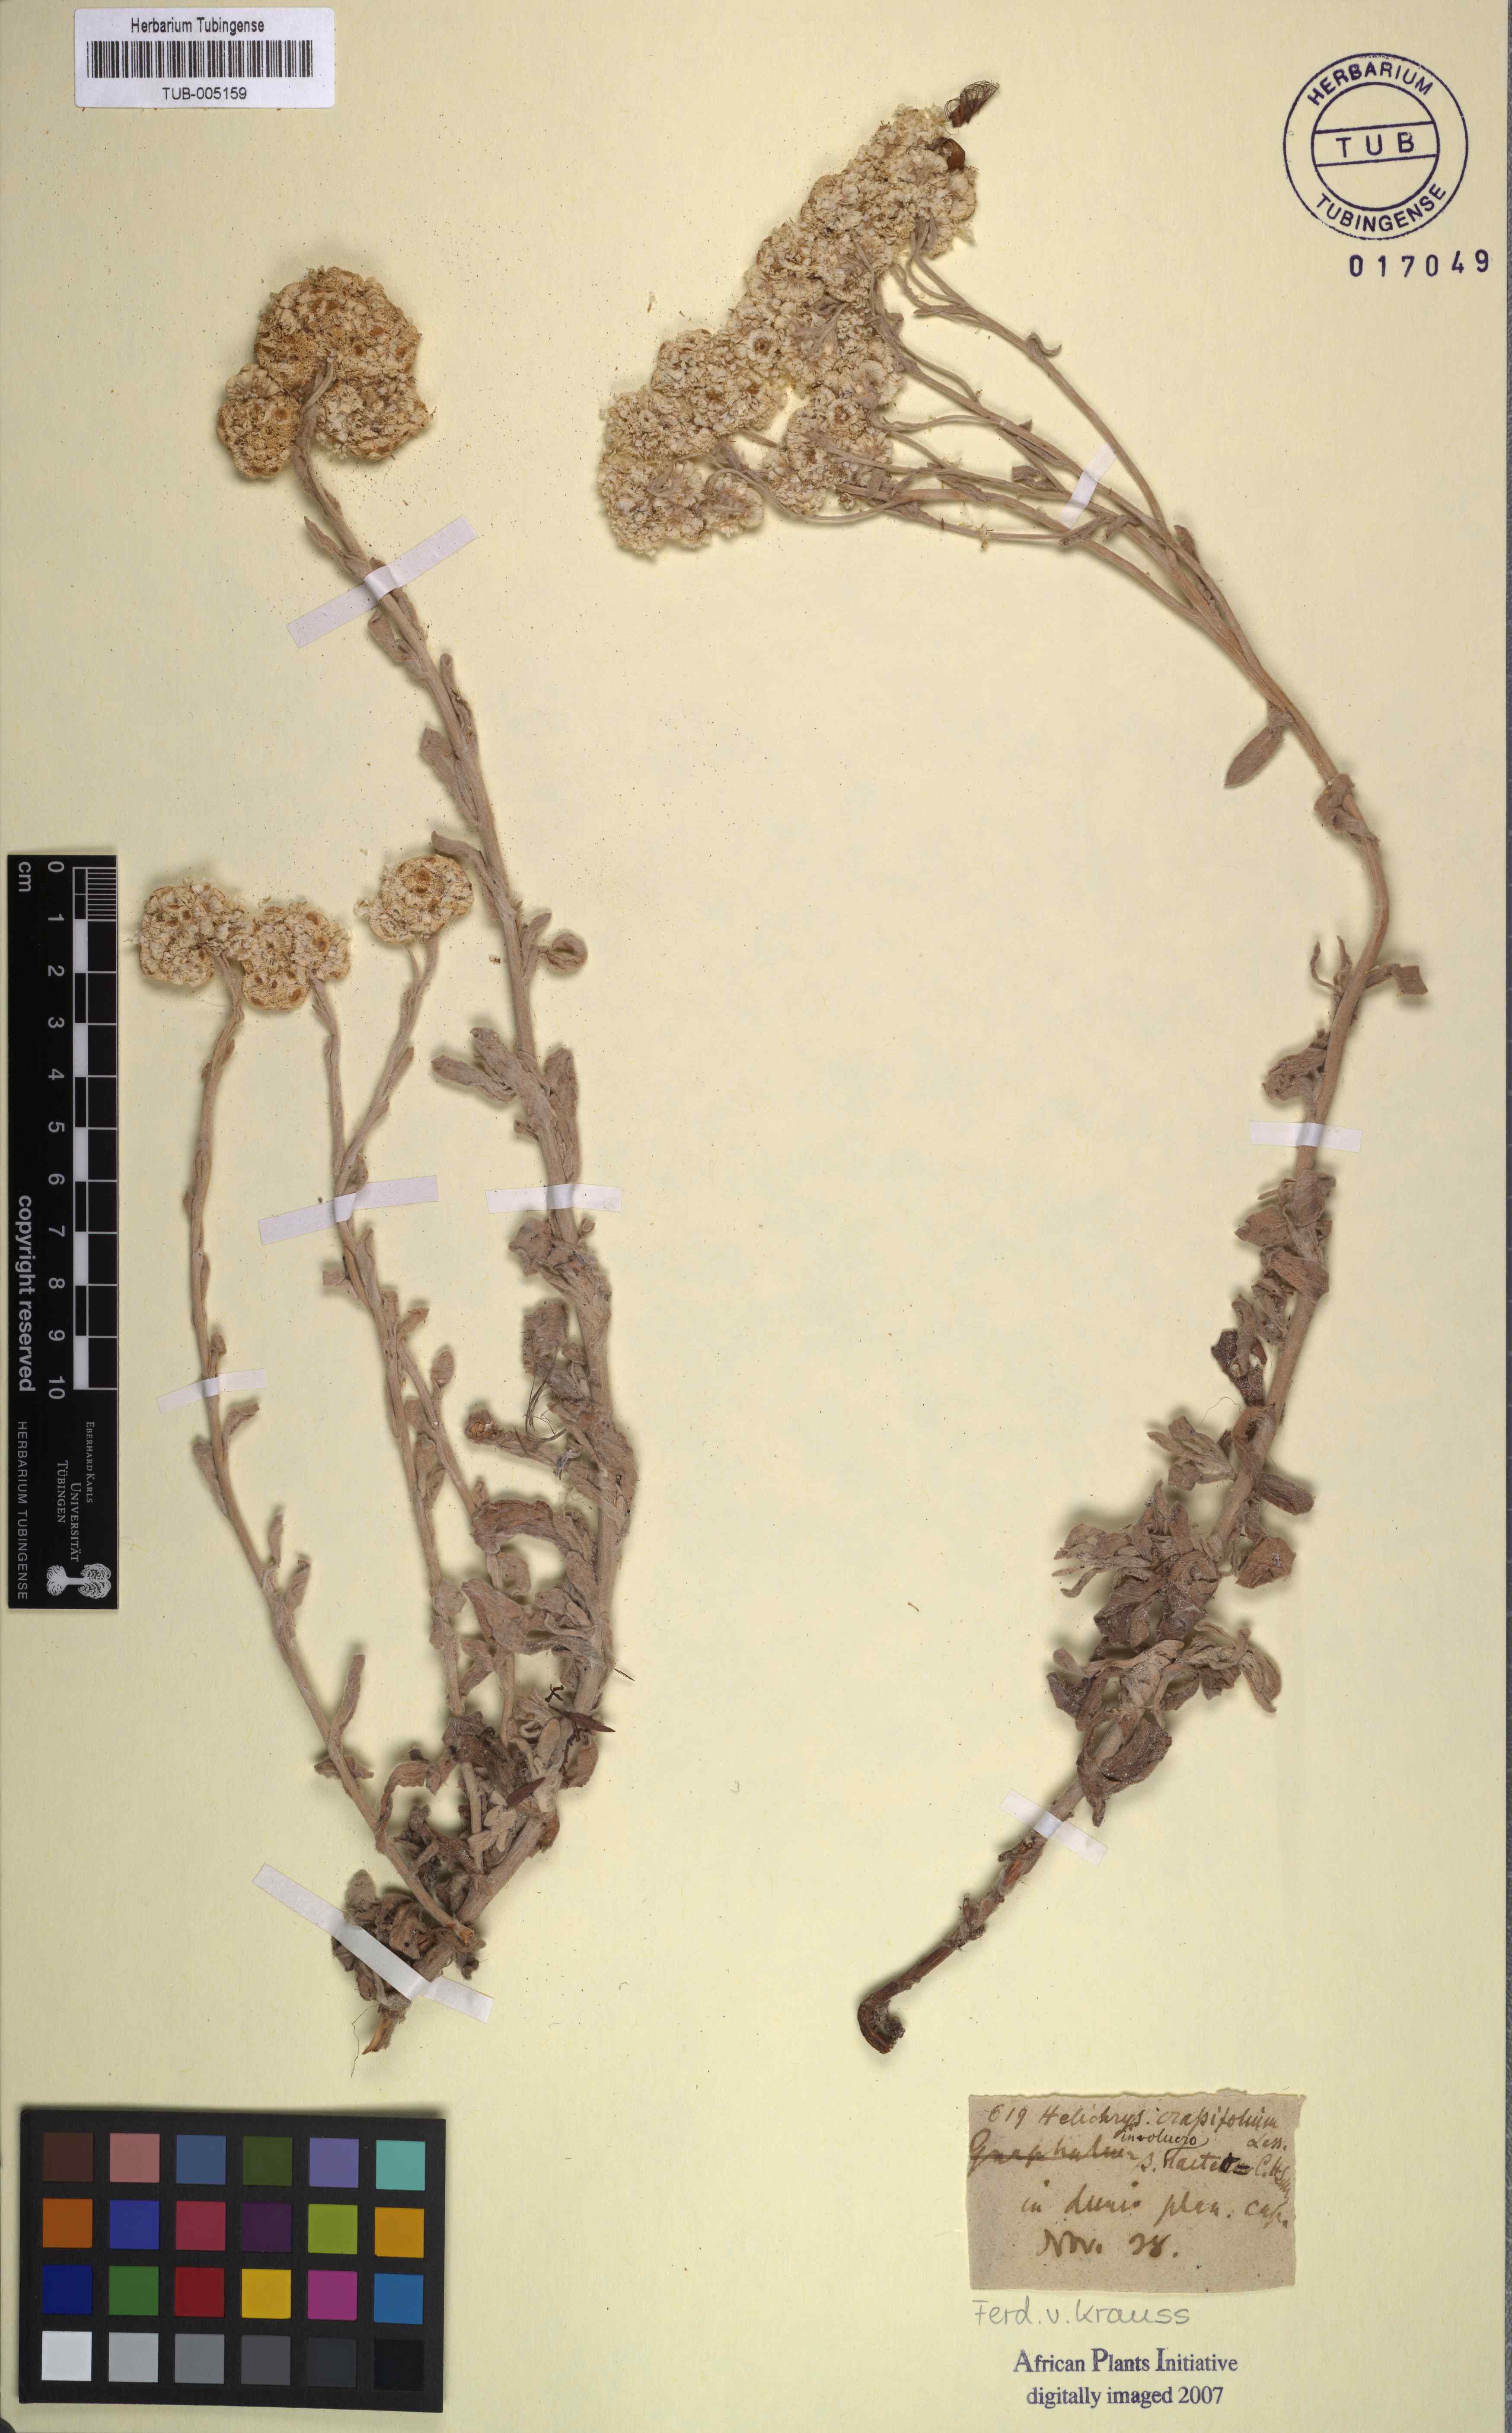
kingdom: Plantae
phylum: Tracheophyta
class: Magnoliopsida
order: Asterales
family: Asteraceae
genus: Helichrysum
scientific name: Helichrysum crassifolium
